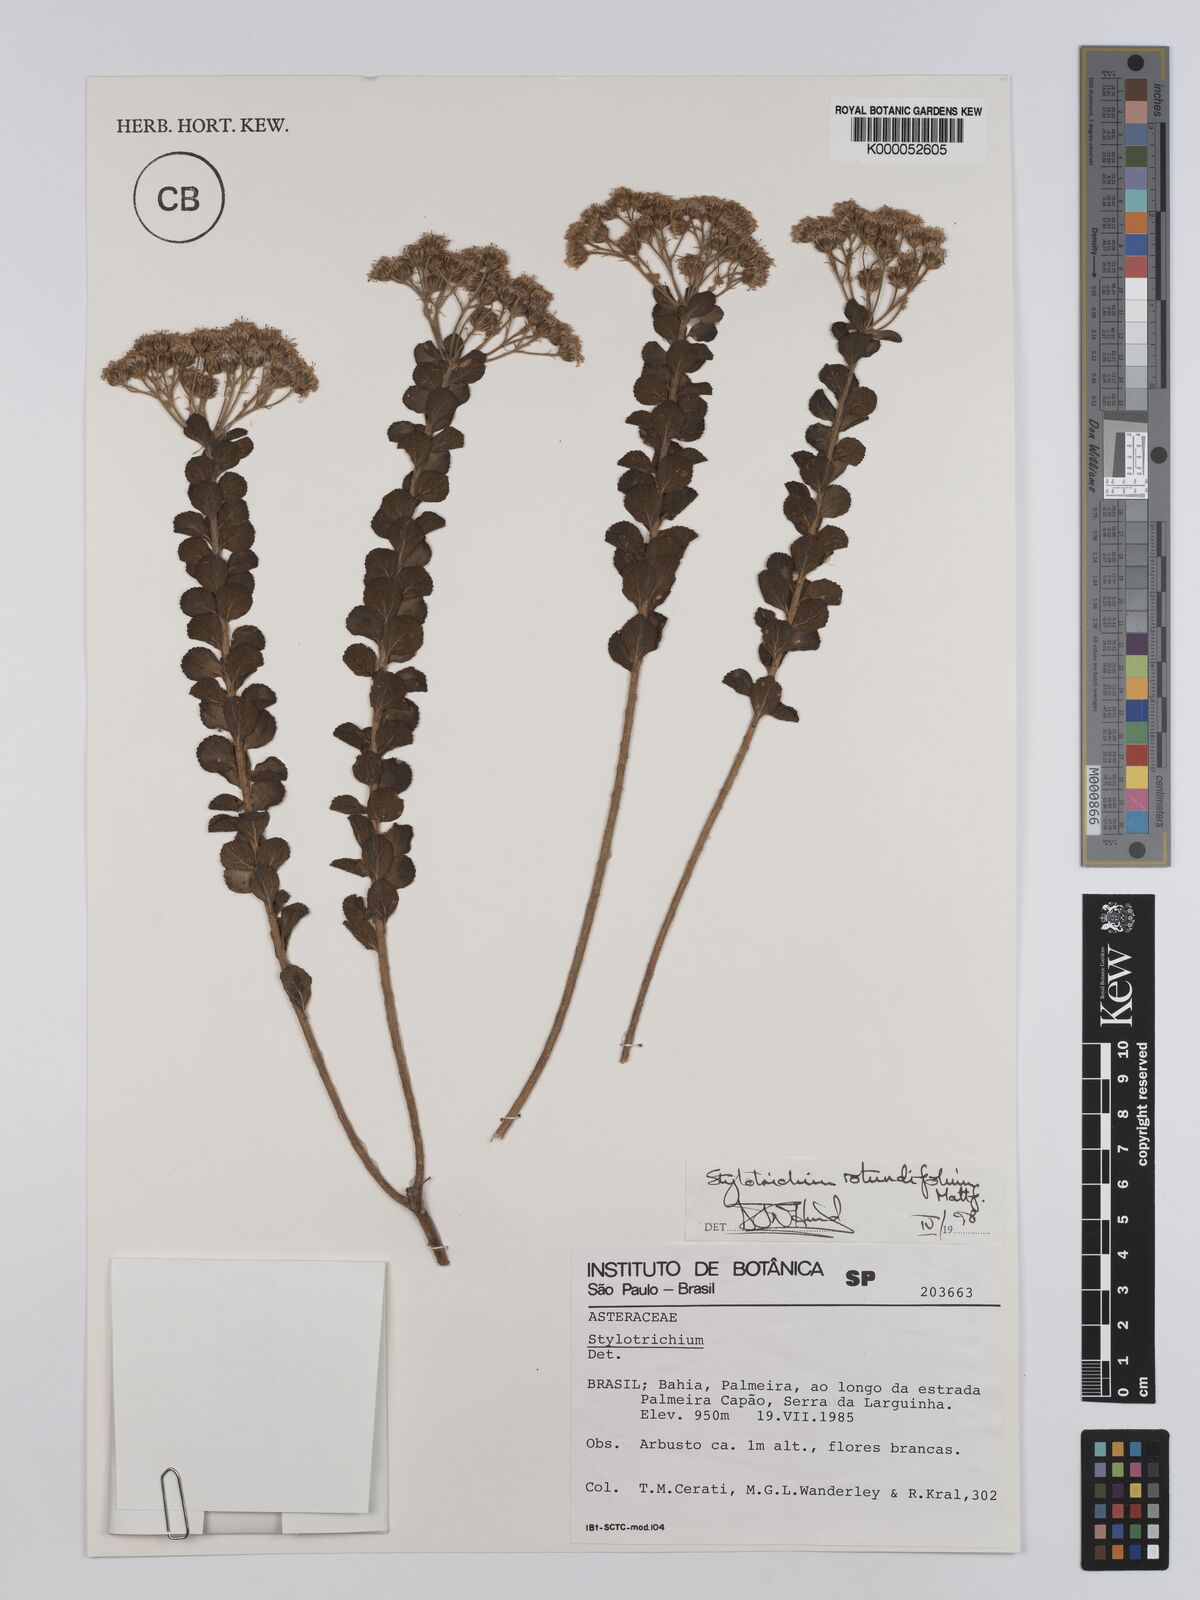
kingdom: Plantae
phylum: Tracheophyta
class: Magnoliopsida
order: Asterales
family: Asteraceae
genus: Stylotrichium
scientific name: Stylotrichium rotundifolium
